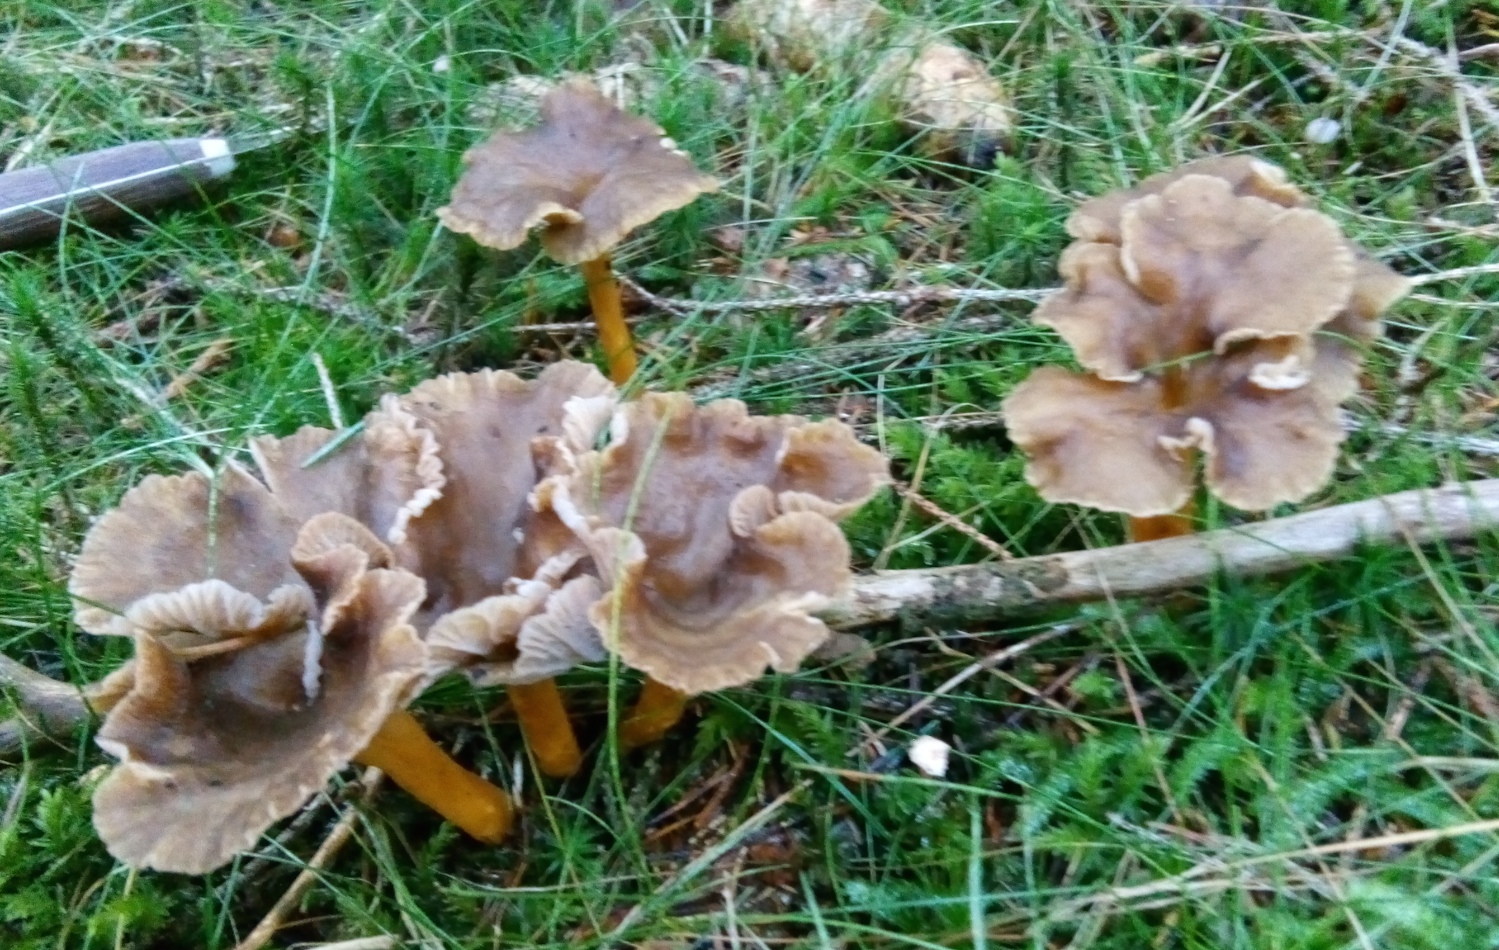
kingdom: Fungi
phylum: Basidiomycota
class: Agaricomycetes
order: Cantharellales
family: Hydnaceae
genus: Craterellus
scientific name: Craterellus tubaeformis
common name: tragt-kantarel
